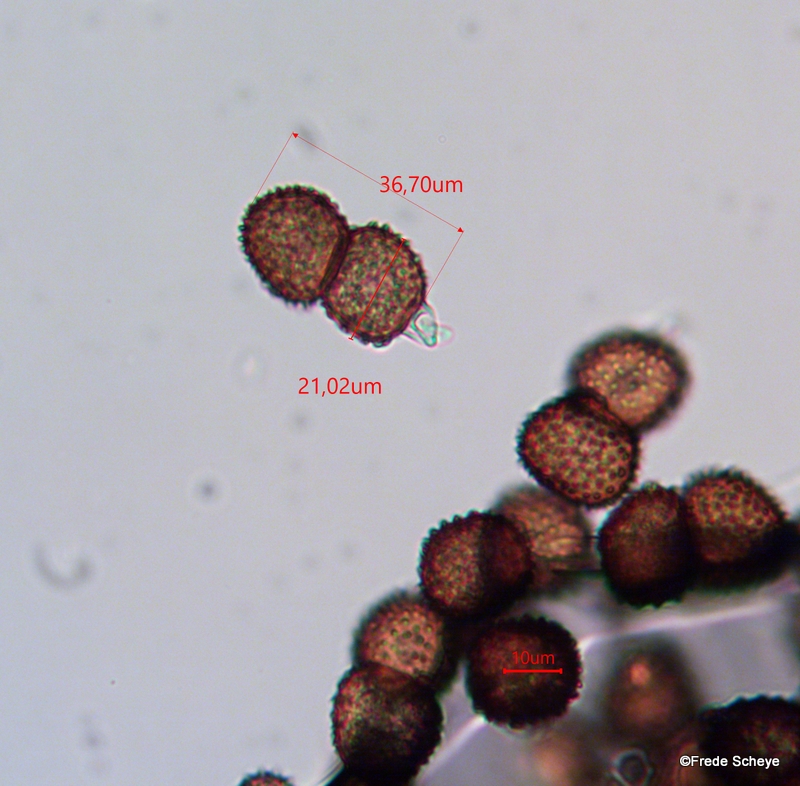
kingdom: Fungi
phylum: Basidiomycota
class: Pucciniomycetes
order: Pucciniales
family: Tranzscheliaceae
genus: Tranzschelia
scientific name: Tranzschelia anemones
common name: anemone-knæksporerust
